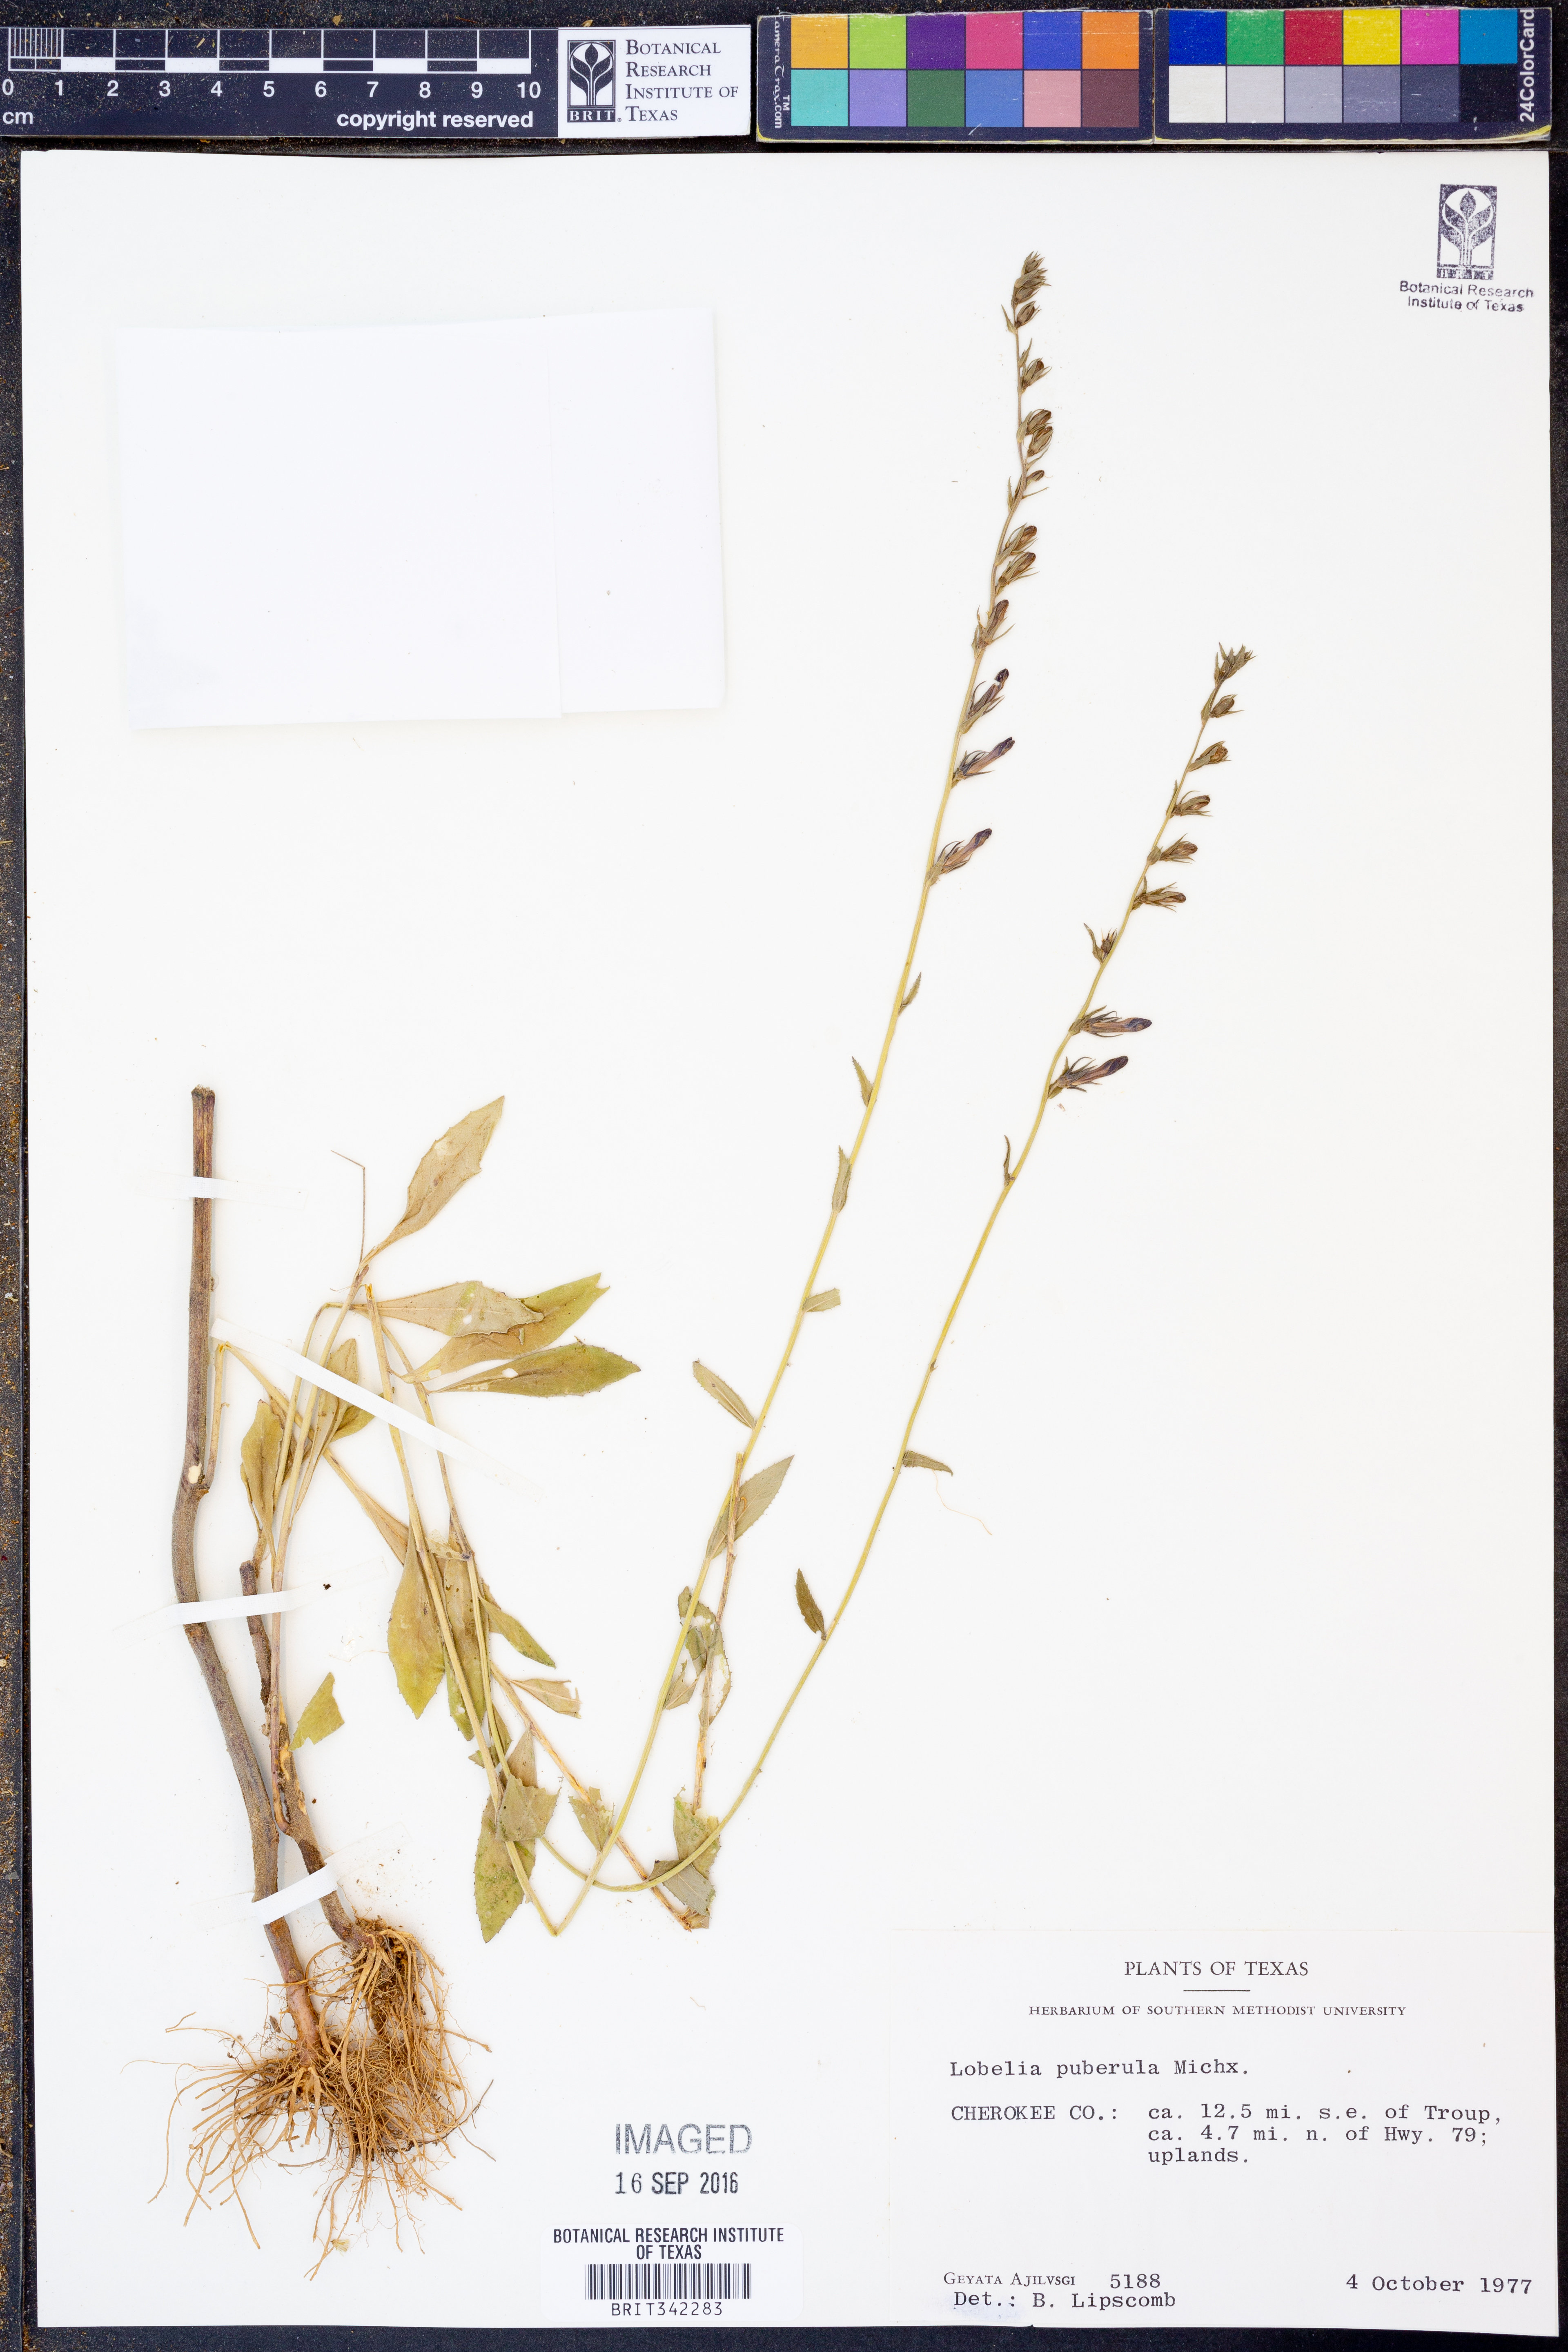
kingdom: Plantae
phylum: Tracheophyta
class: Magnoliopsida
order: Asterales
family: Campanulaceae
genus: Lobelia
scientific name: Lobelia puberula
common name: Purple dewdrop
